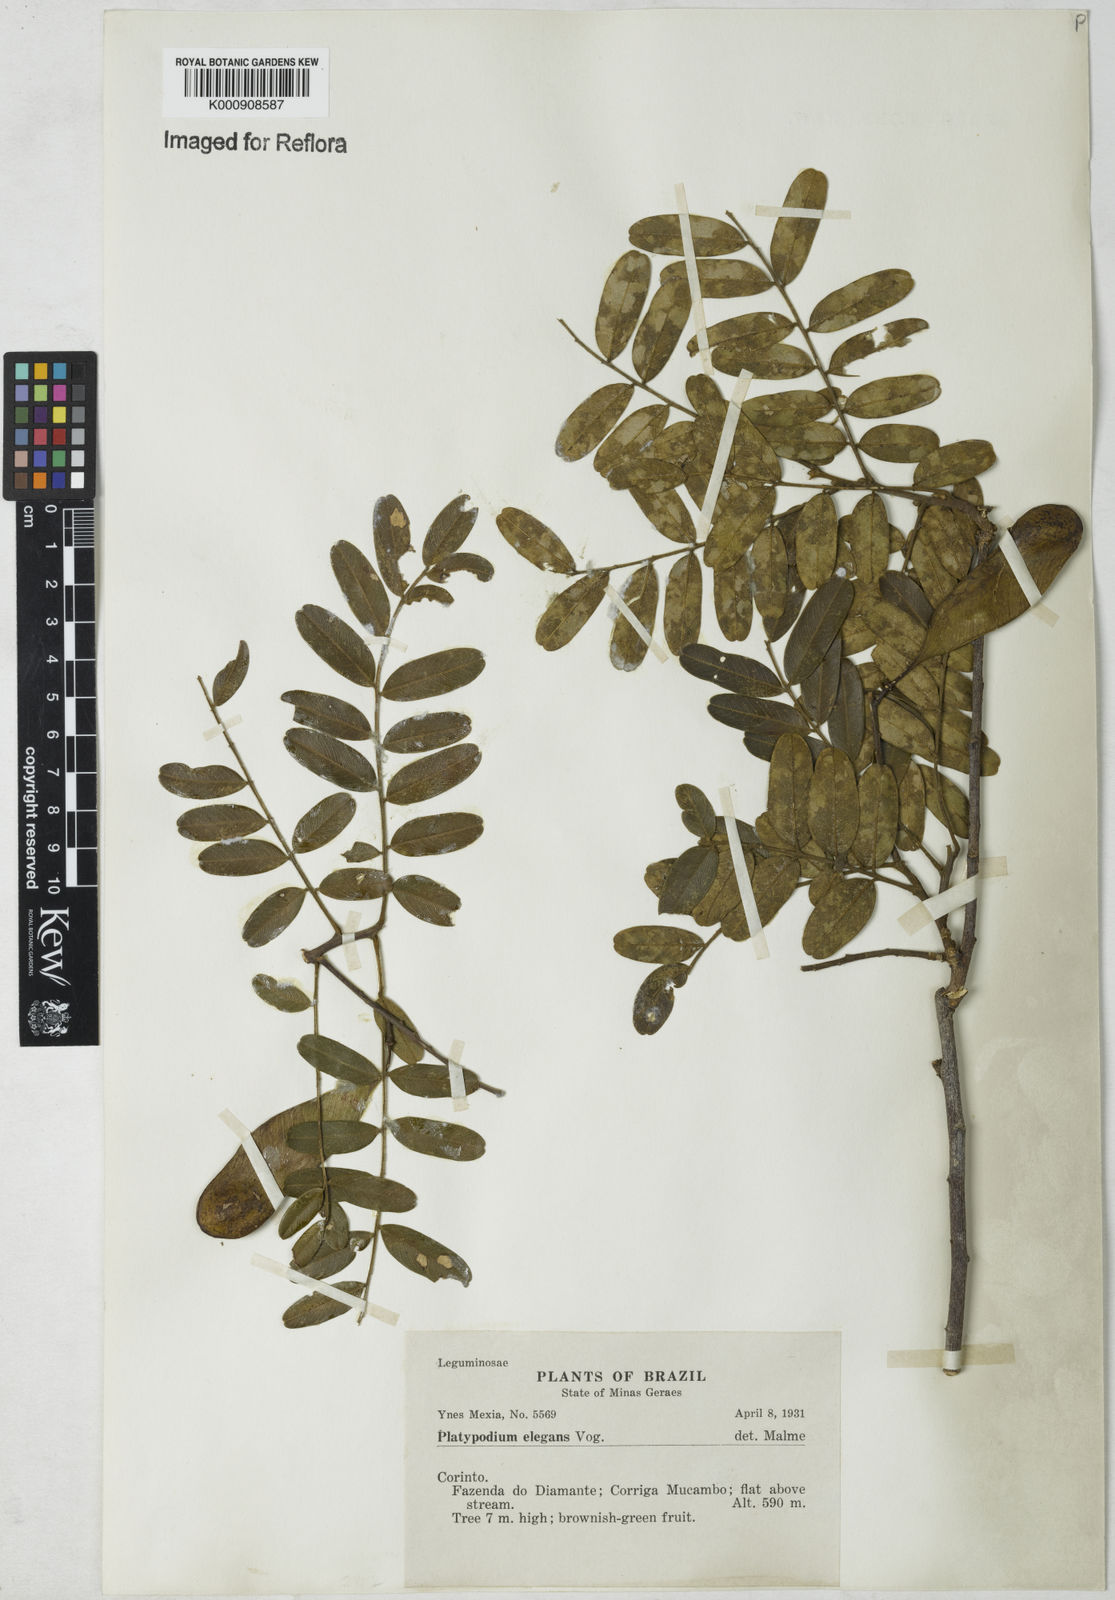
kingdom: Plantae
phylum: Tracheophyta
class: Magnoliopsida
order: Fabales
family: Fabaceae
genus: Platypodium
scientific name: Platypodium
